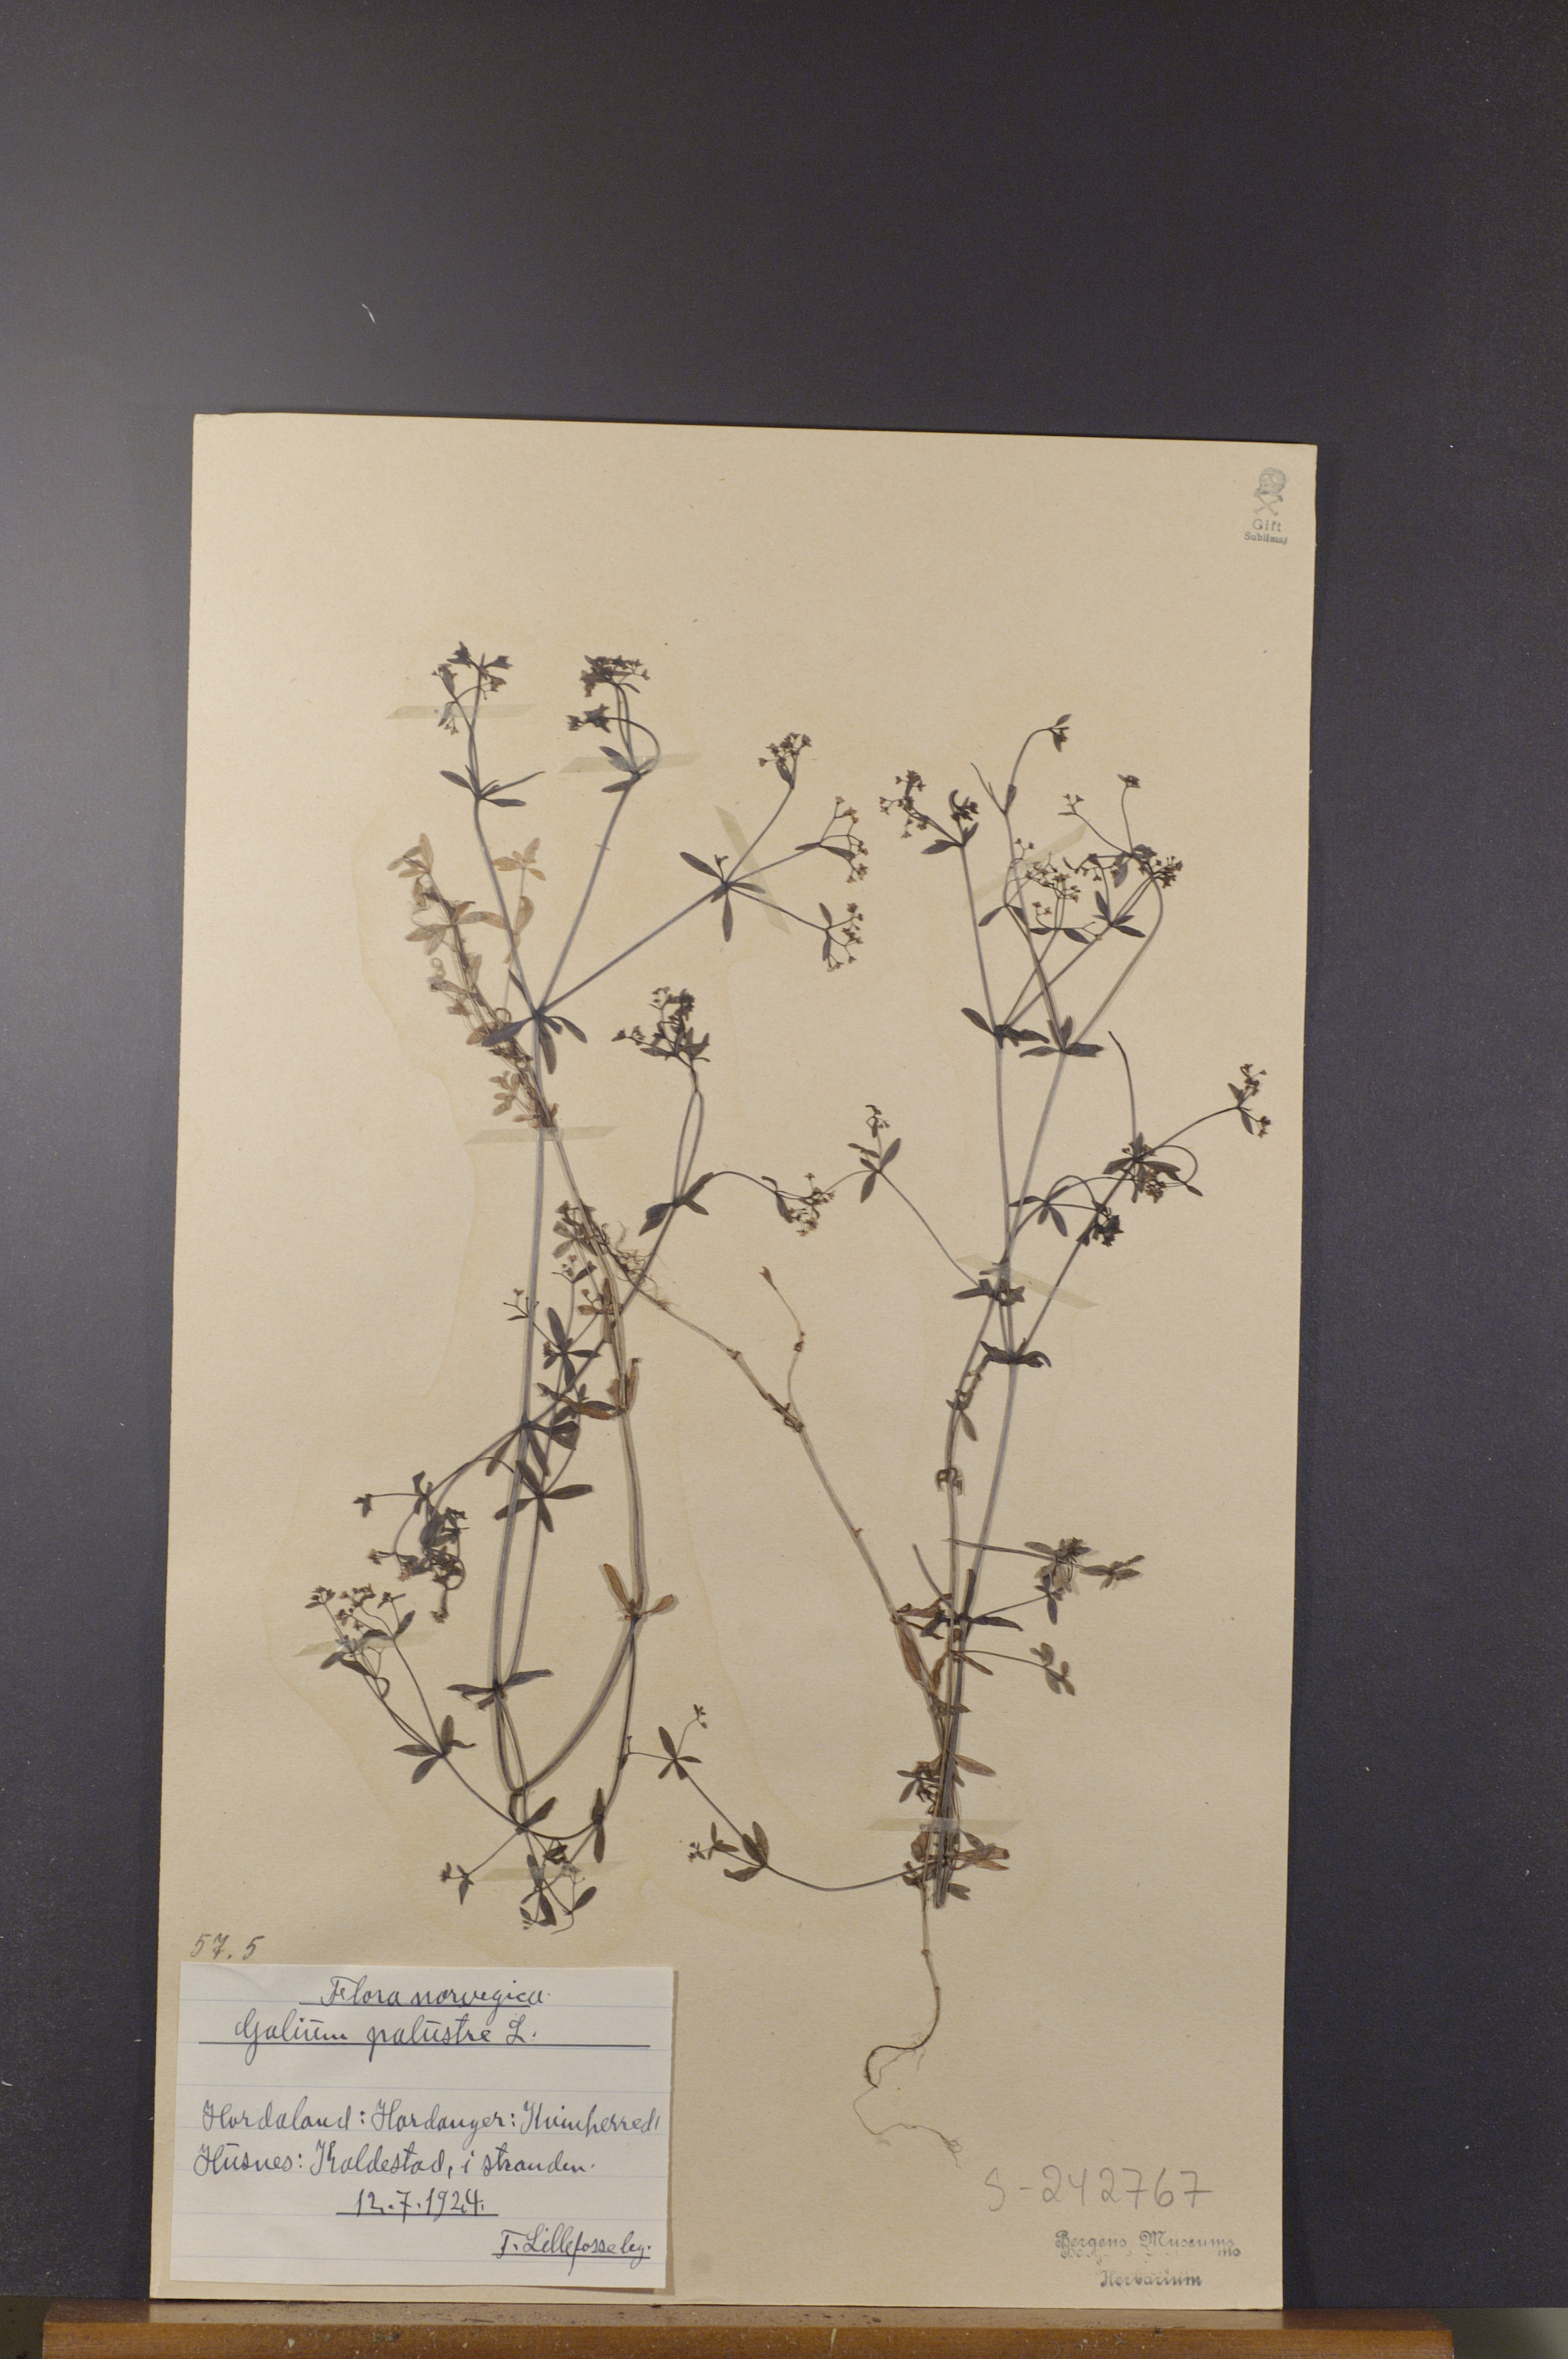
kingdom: Plantae
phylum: Tracheophyta
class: Magnoliopsida
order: Gentianales
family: Rubiaceae
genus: Galium
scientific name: Galium palustre
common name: Common marsh-bedstraw
